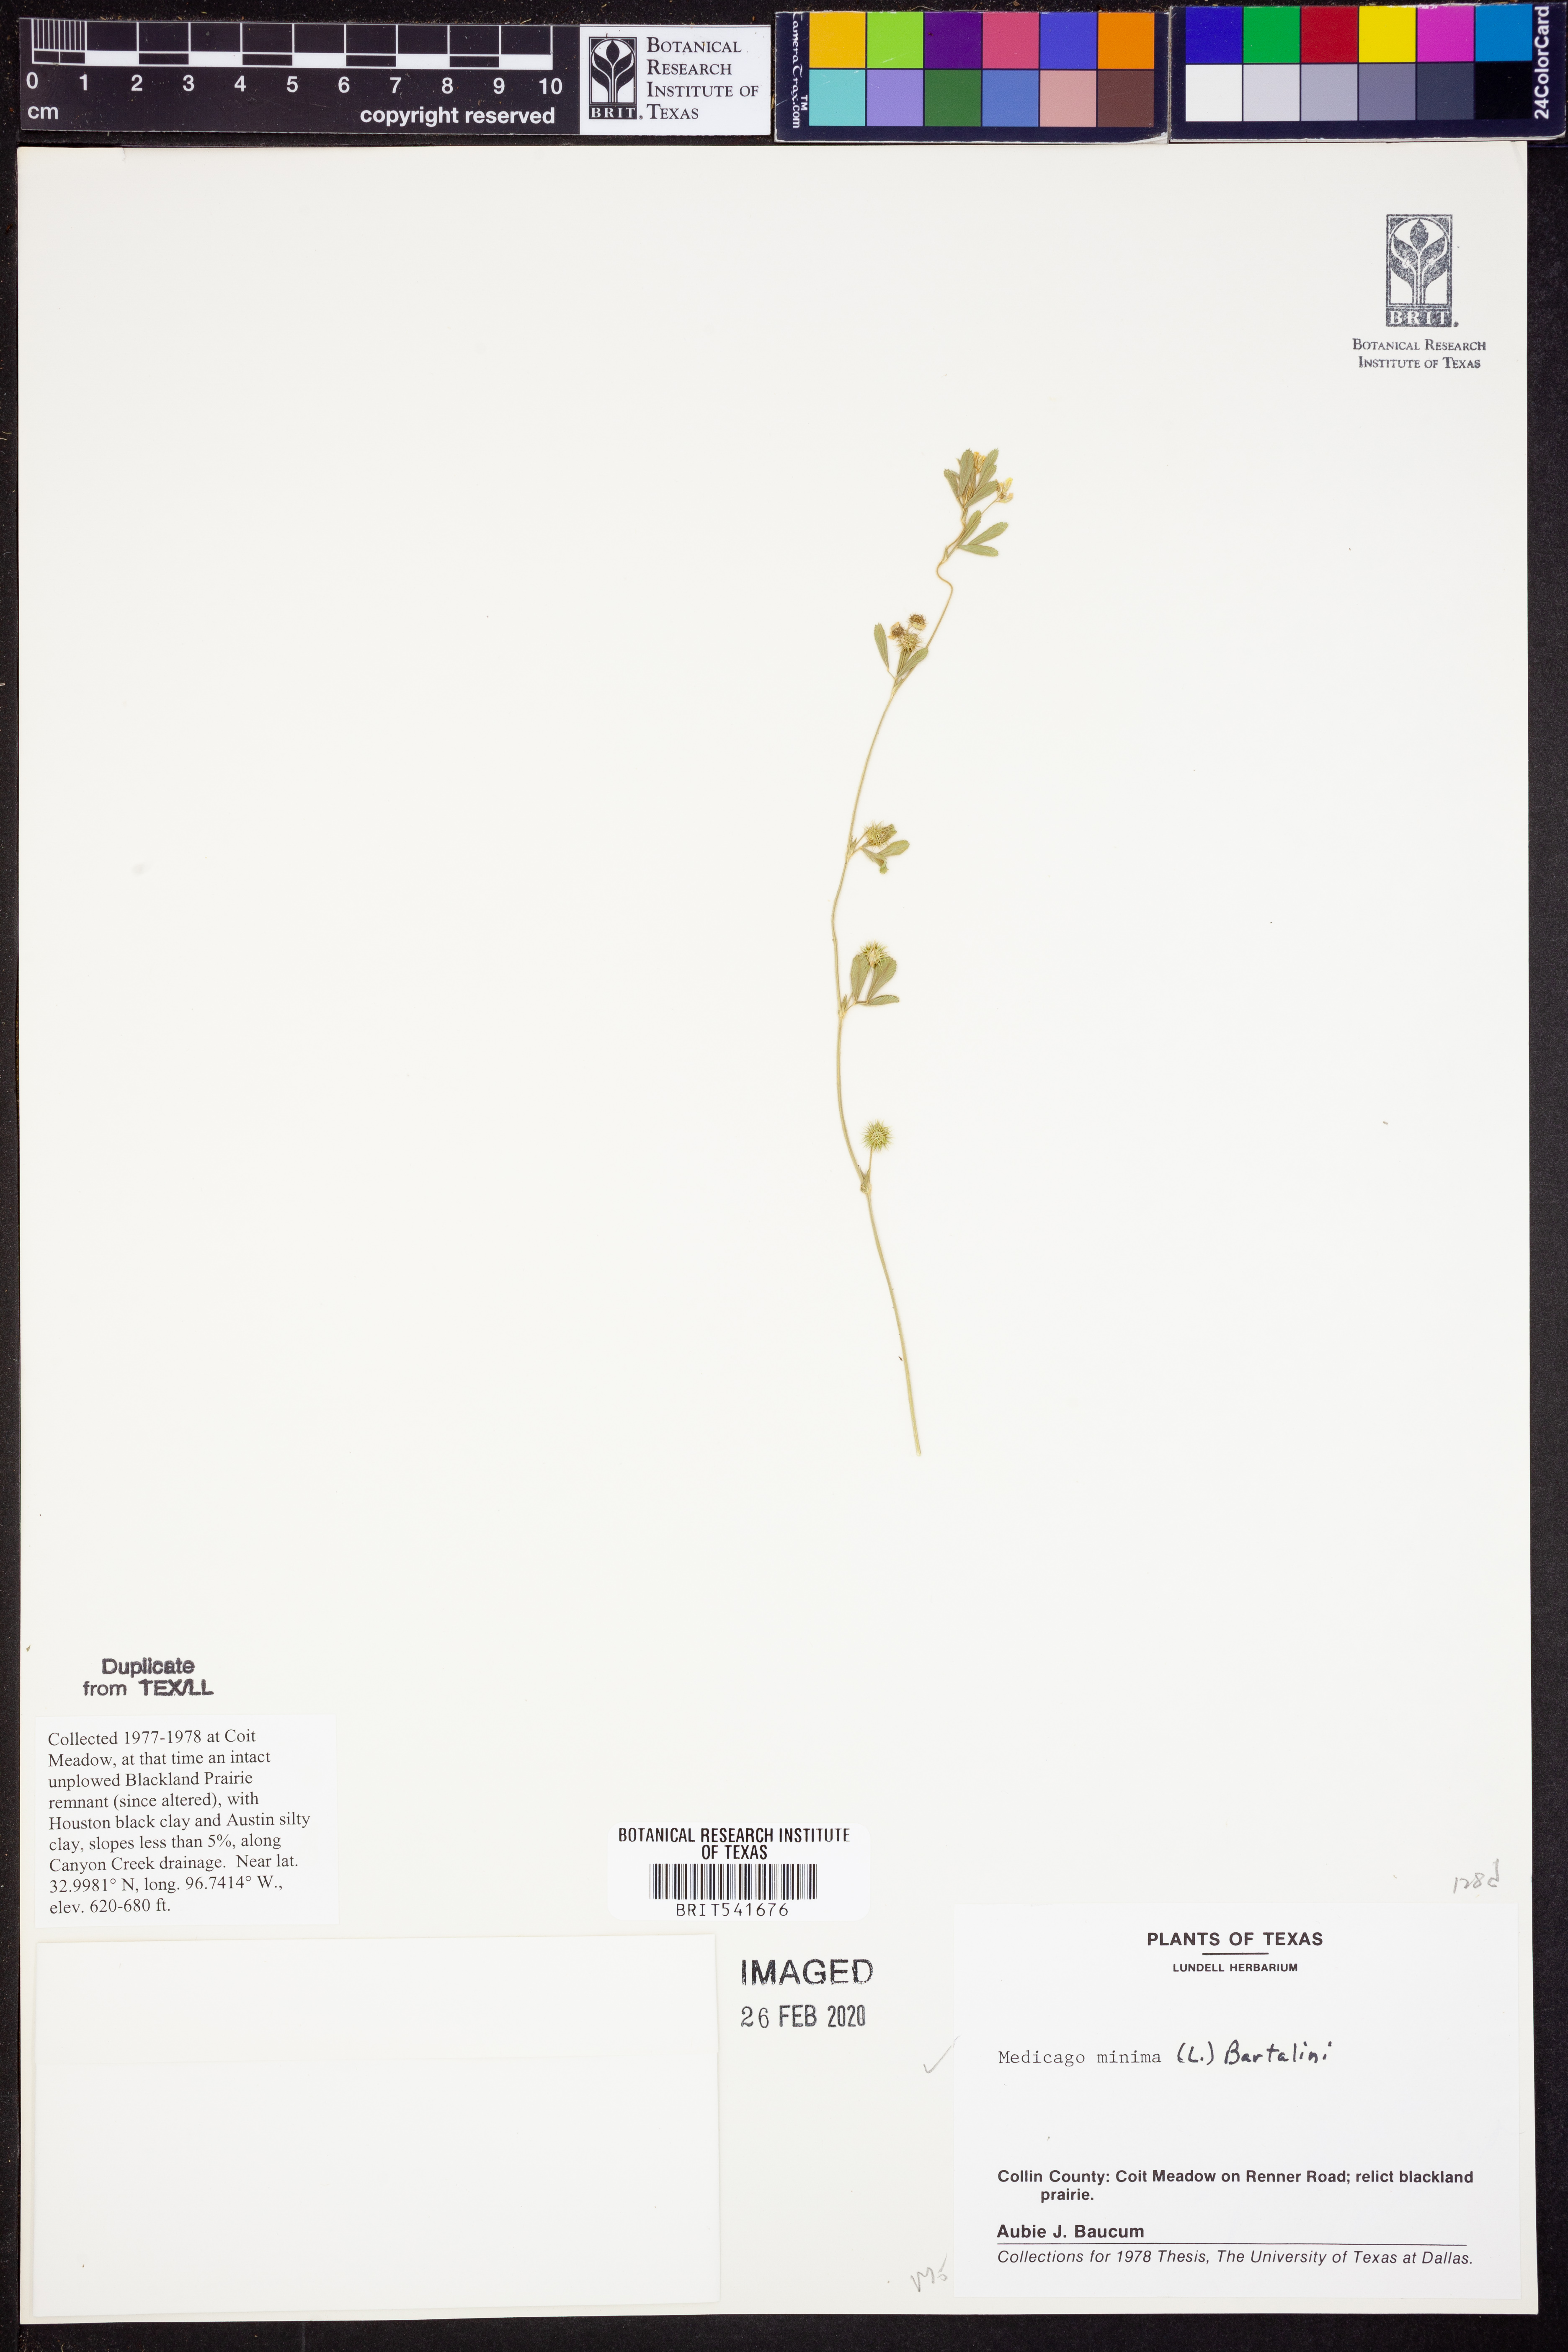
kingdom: Plantae
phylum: Tracheophyta
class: Magnoliopsida
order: Fabales
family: Fabaceae
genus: Medicago
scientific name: Medicago minima
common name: Little bur-clover
